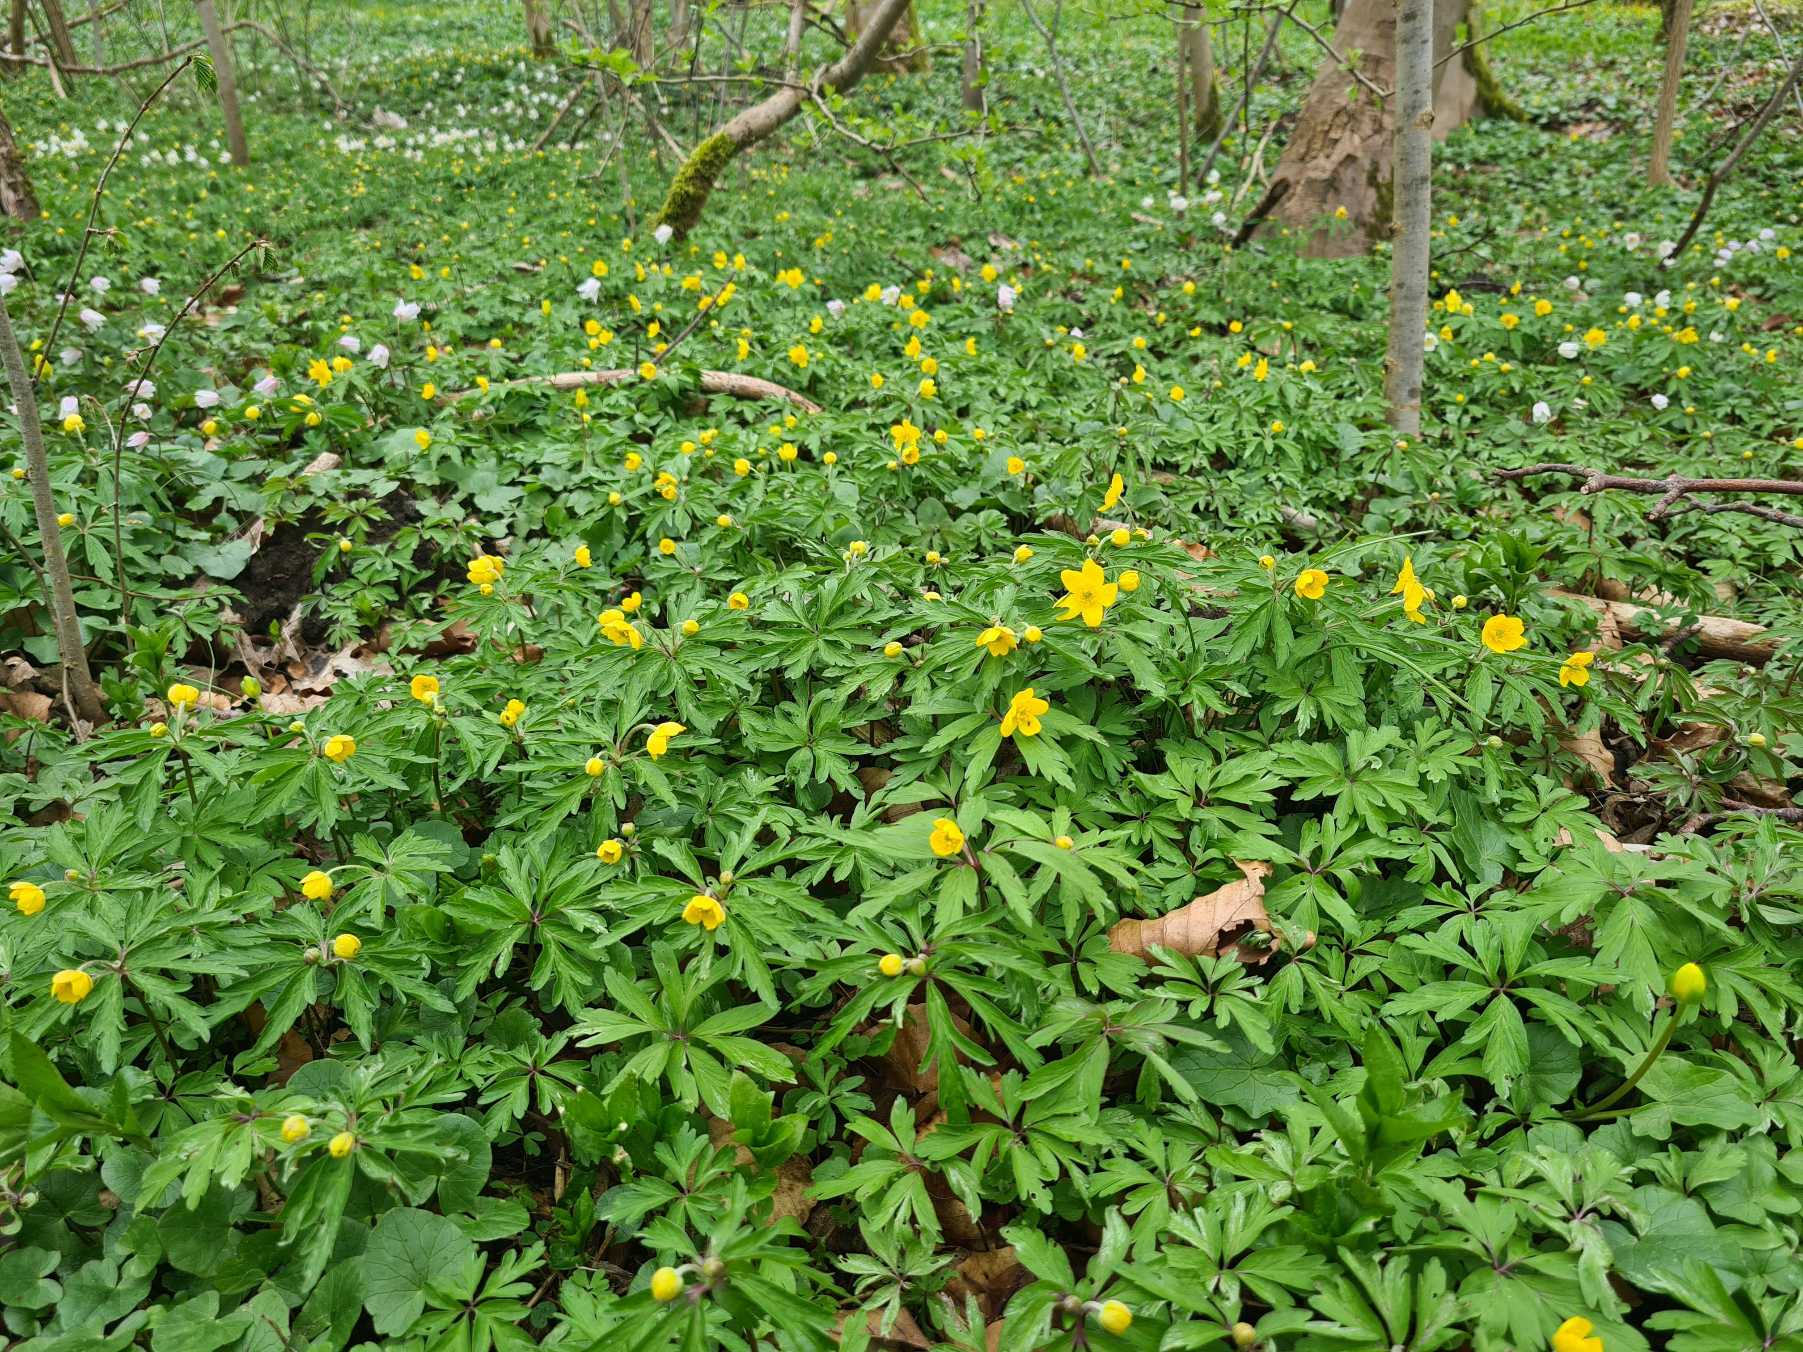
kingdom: Plantae
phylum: Tracheophyta
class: Magnoliopsida
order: Ranunculales
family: Ranunculaceae
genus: Anemone
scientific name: Anemone ranunculoides
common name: Gul anemone
